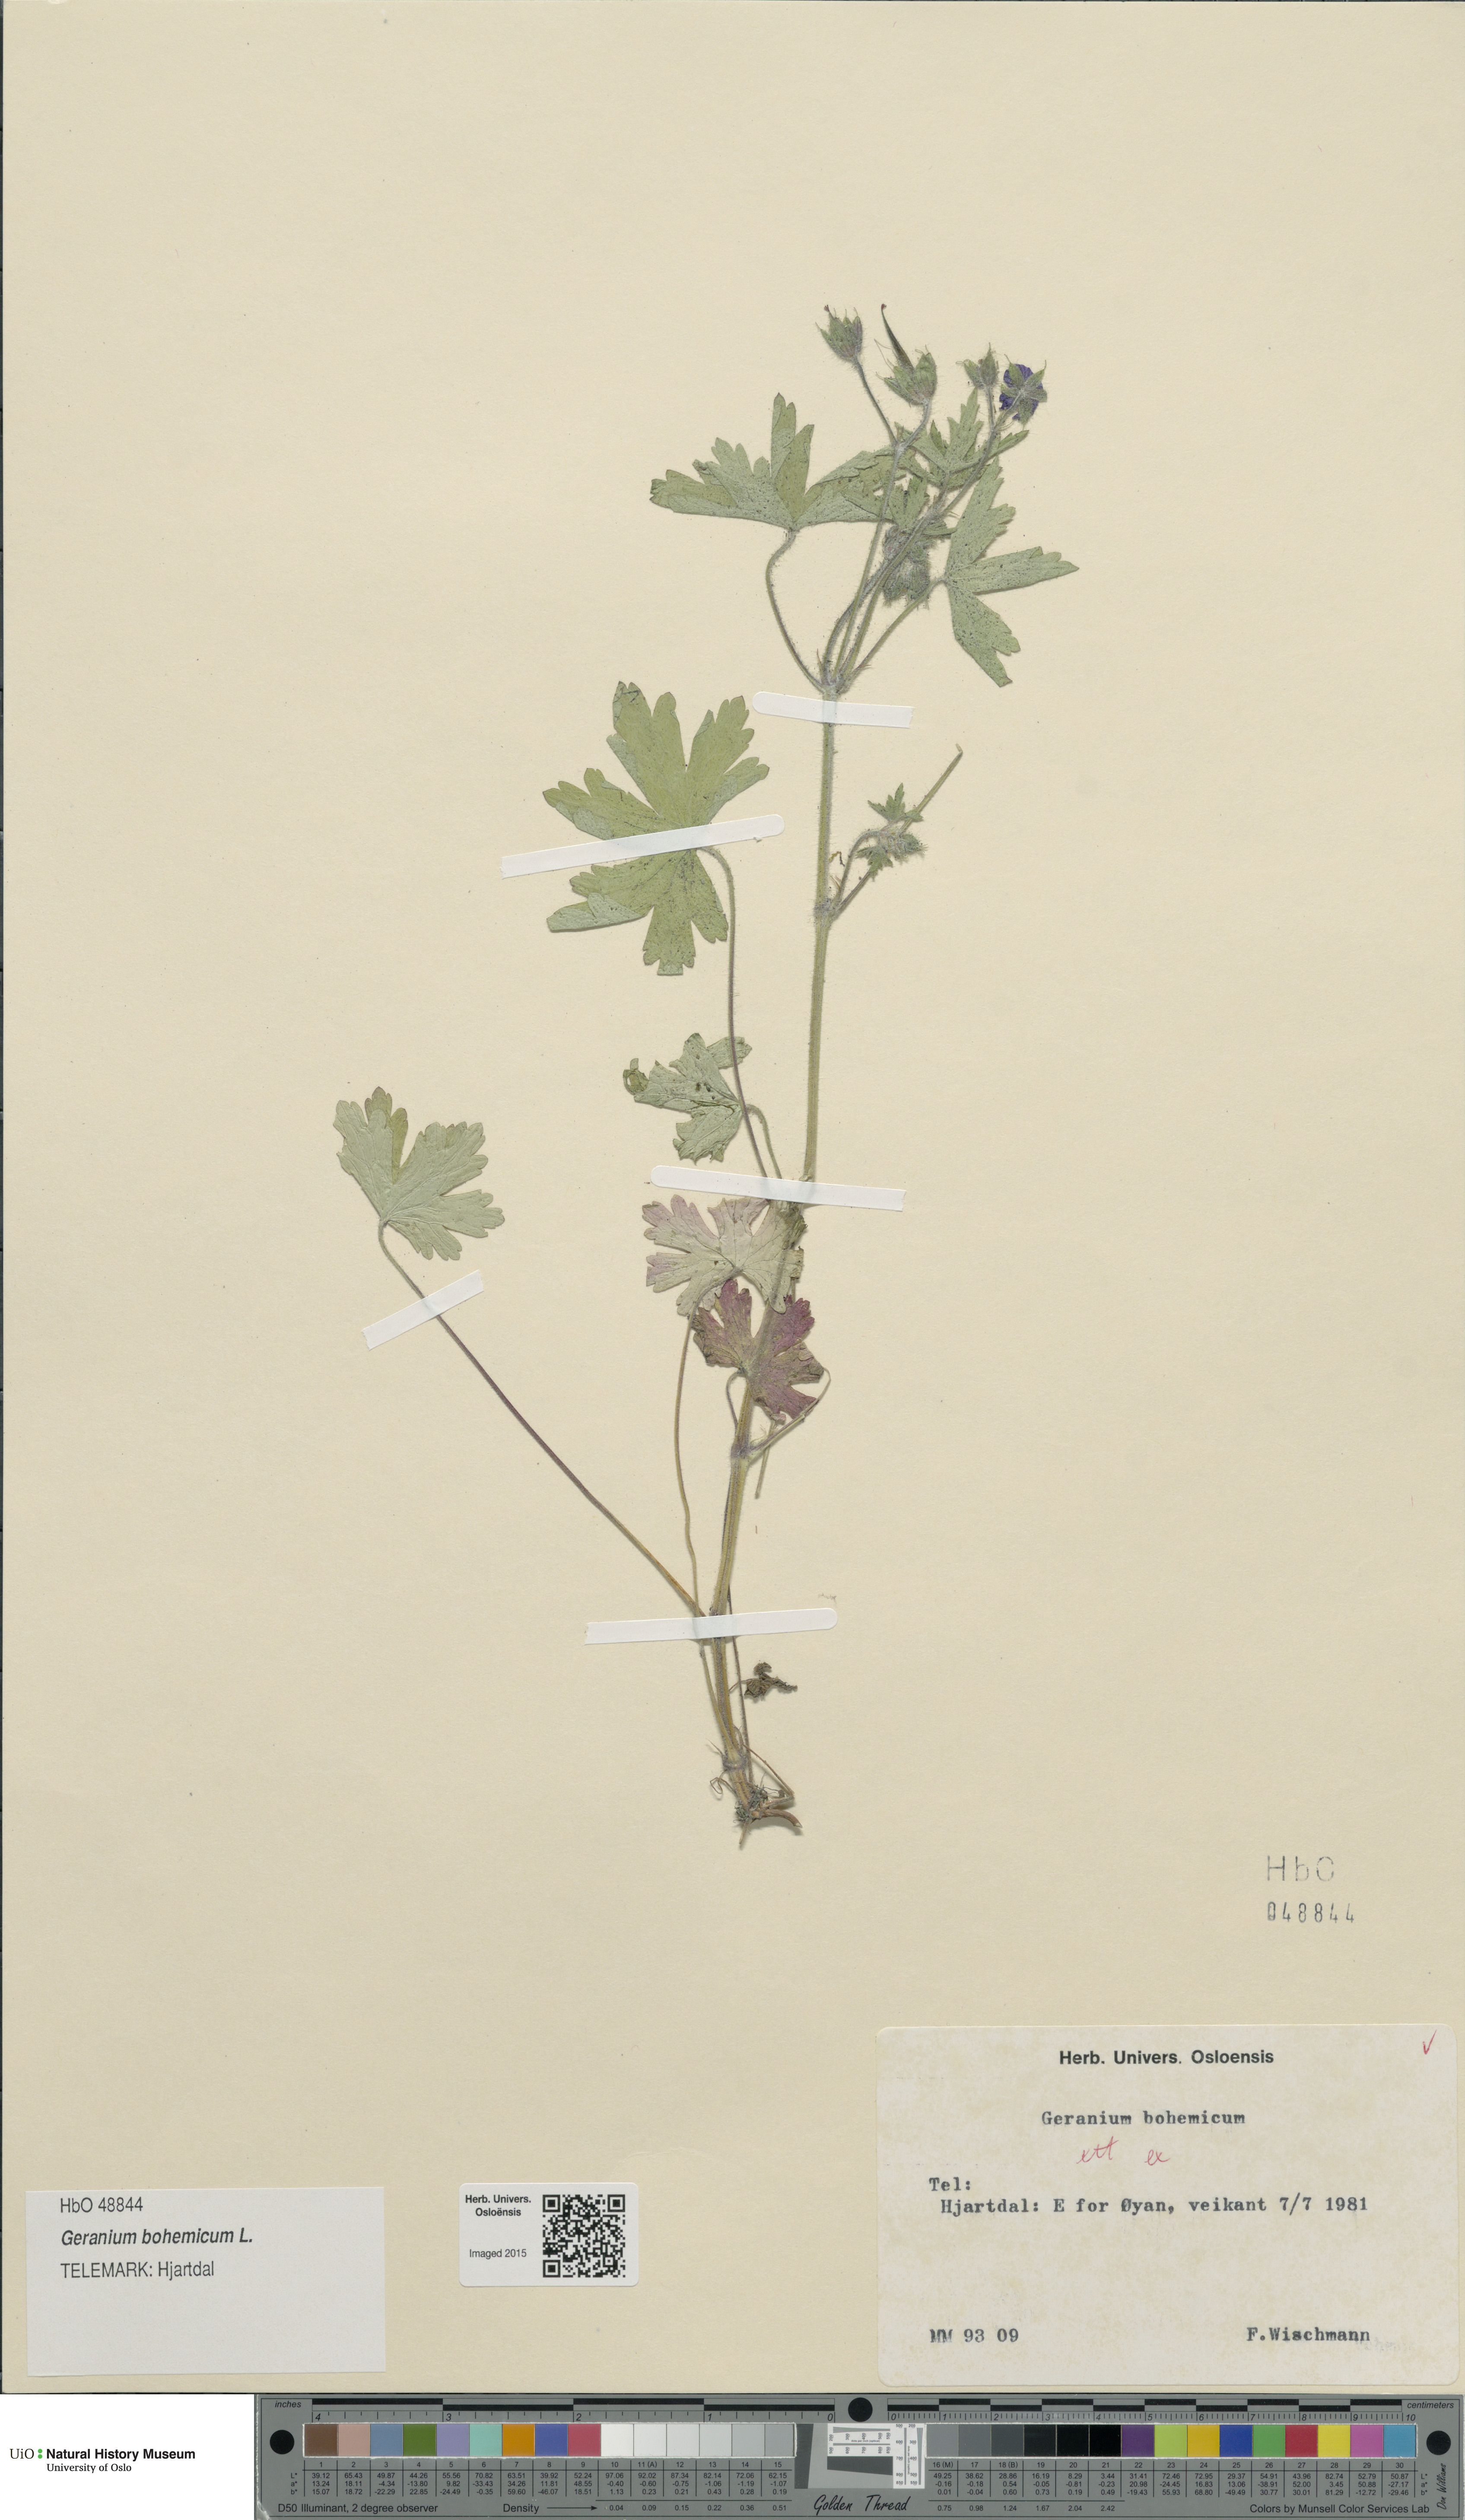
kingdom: Plantae
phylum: Tracheophyta
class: Magnoliopsida
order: Geraniales
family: Geraniaceae
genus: Geranium
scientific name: Geranium bohemicum
